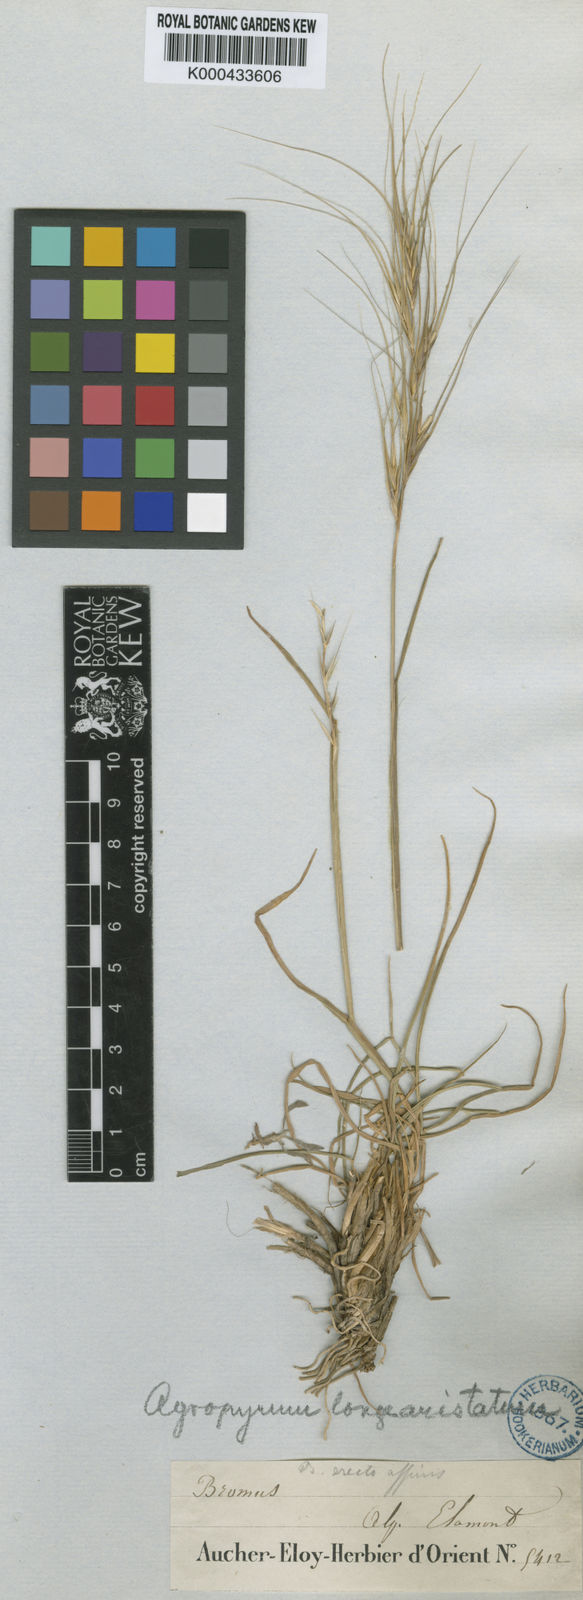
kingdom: Plantae
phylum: Tracheophyta
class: Liliopsida
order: Poales
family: Poaceae
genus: Elymus
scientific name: Elymus
